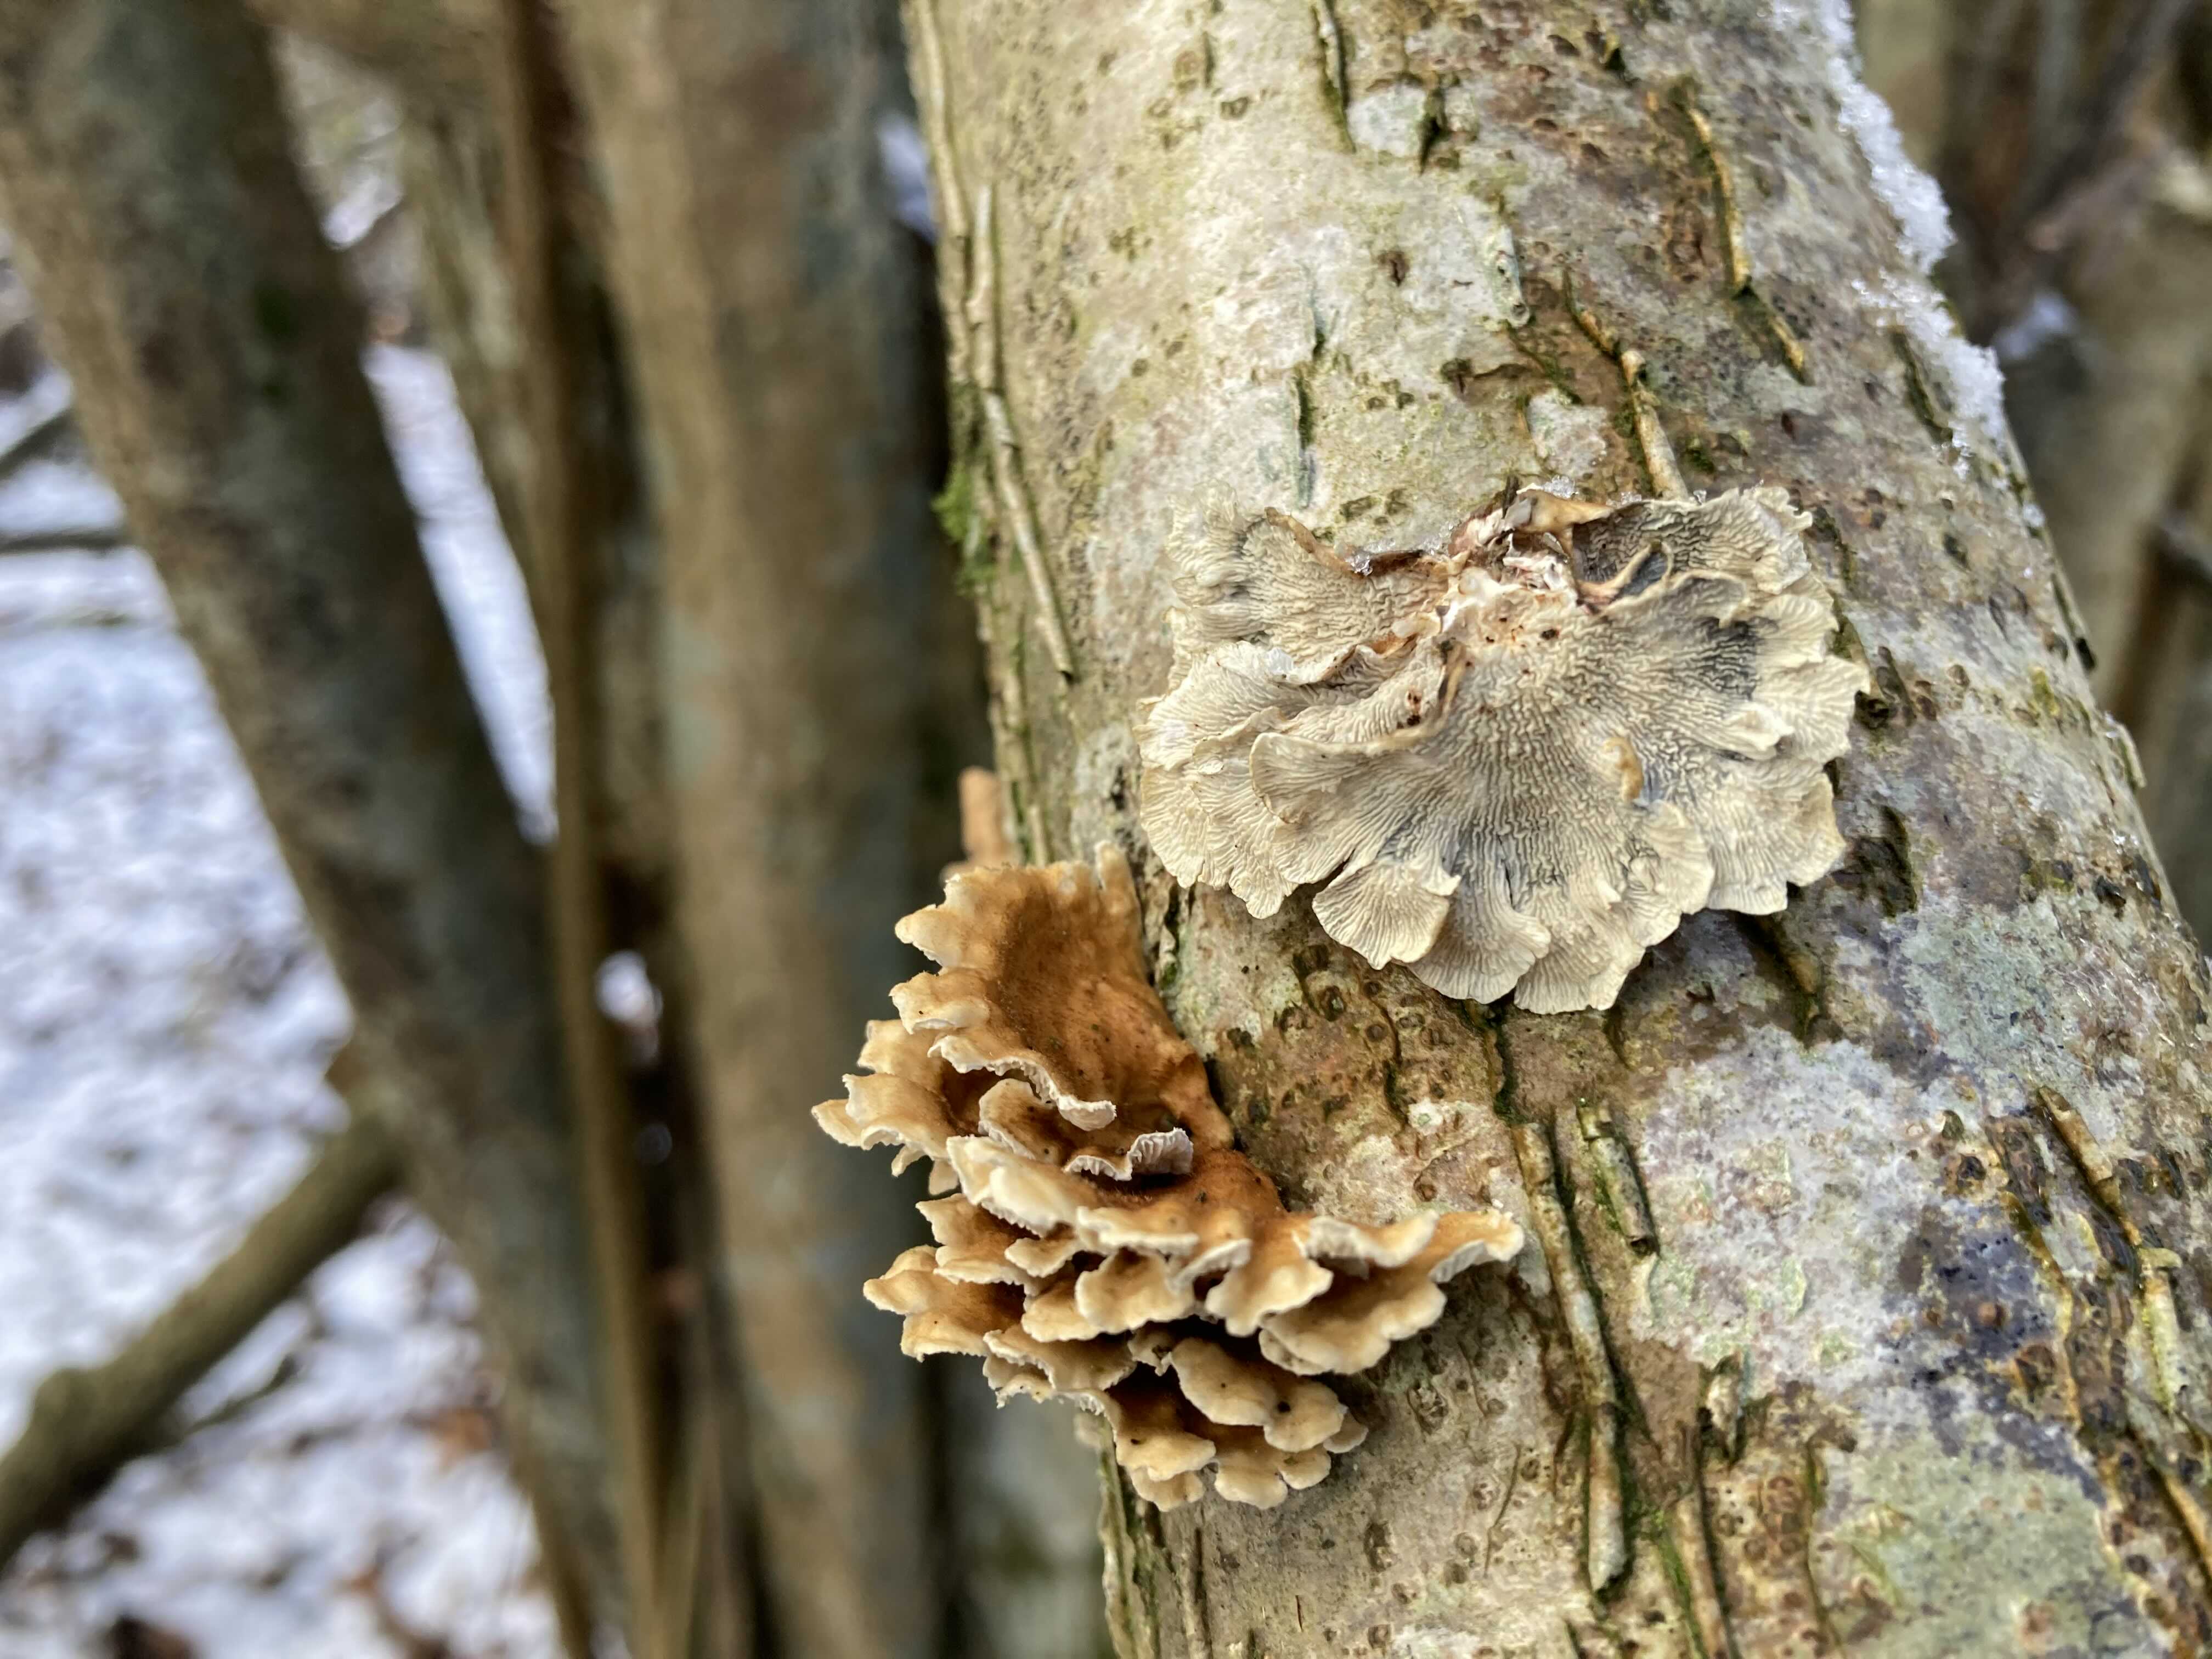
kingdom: Fungi
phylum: Basidiomycota
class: Agaricomycetes
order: Amylocorticiales
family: Amylocorticiaceae
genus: Plicaturopsis
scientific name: Plicaturopsis crispa
